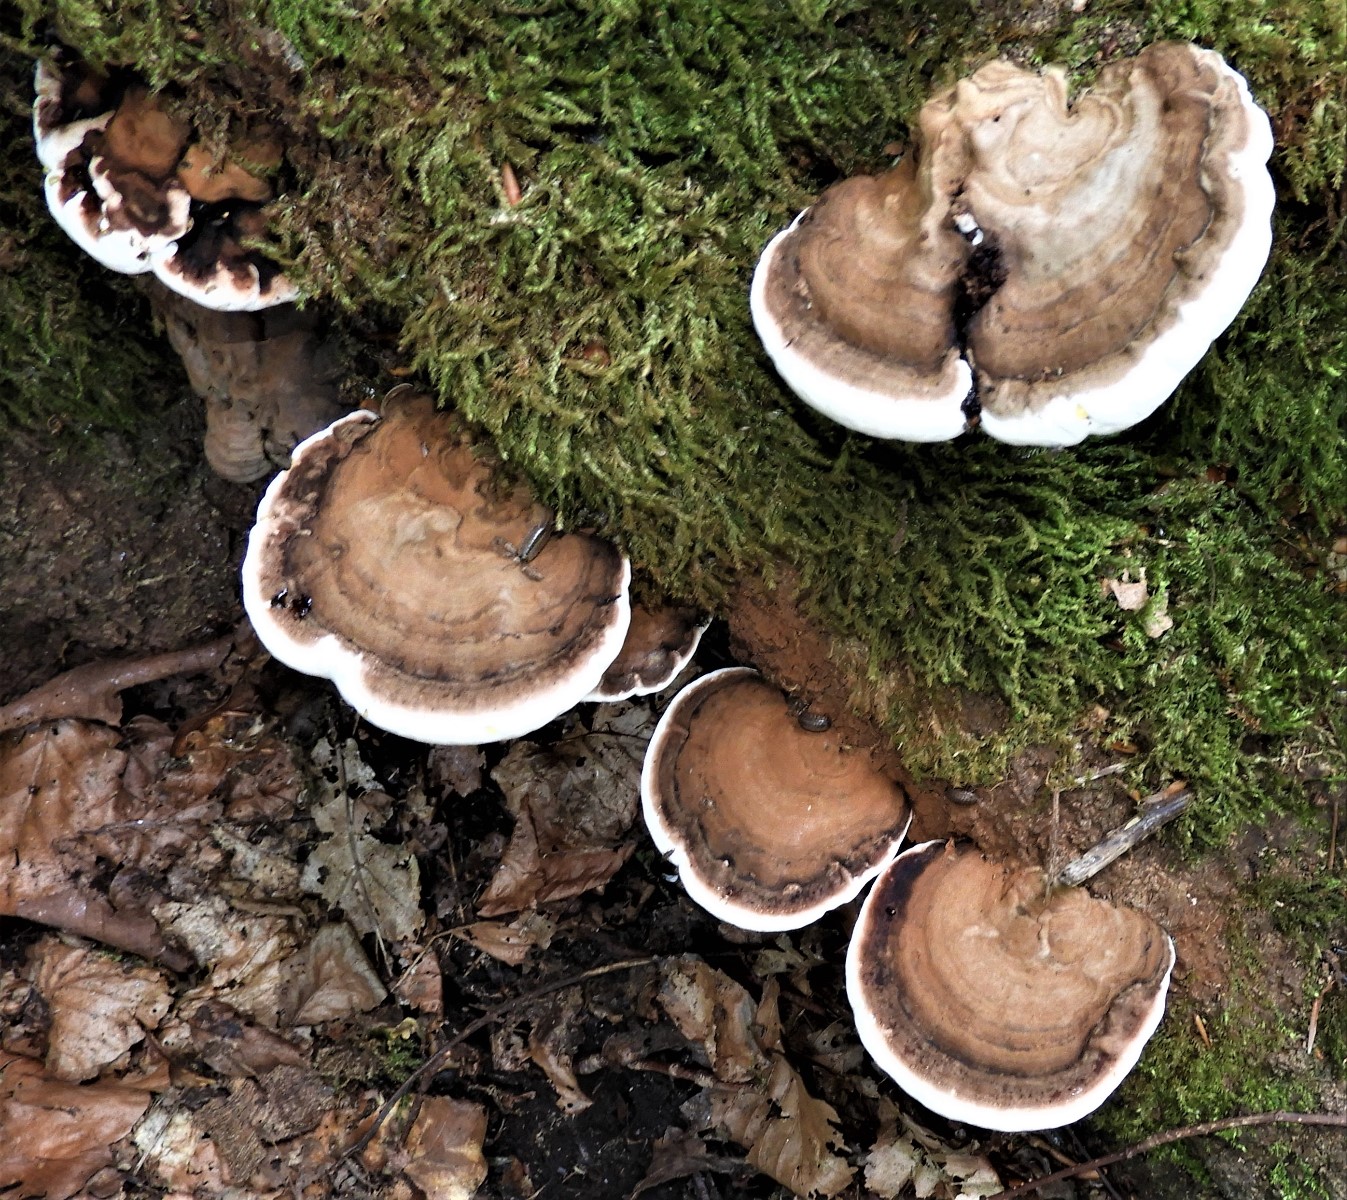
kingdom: Fungi
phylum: Basidiomycota
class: Agaricomycetes
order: Polyporales
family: Polyporaceae
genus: Ganoderma
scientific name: Ganoderma applanatum
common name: flad lakporesvamp
